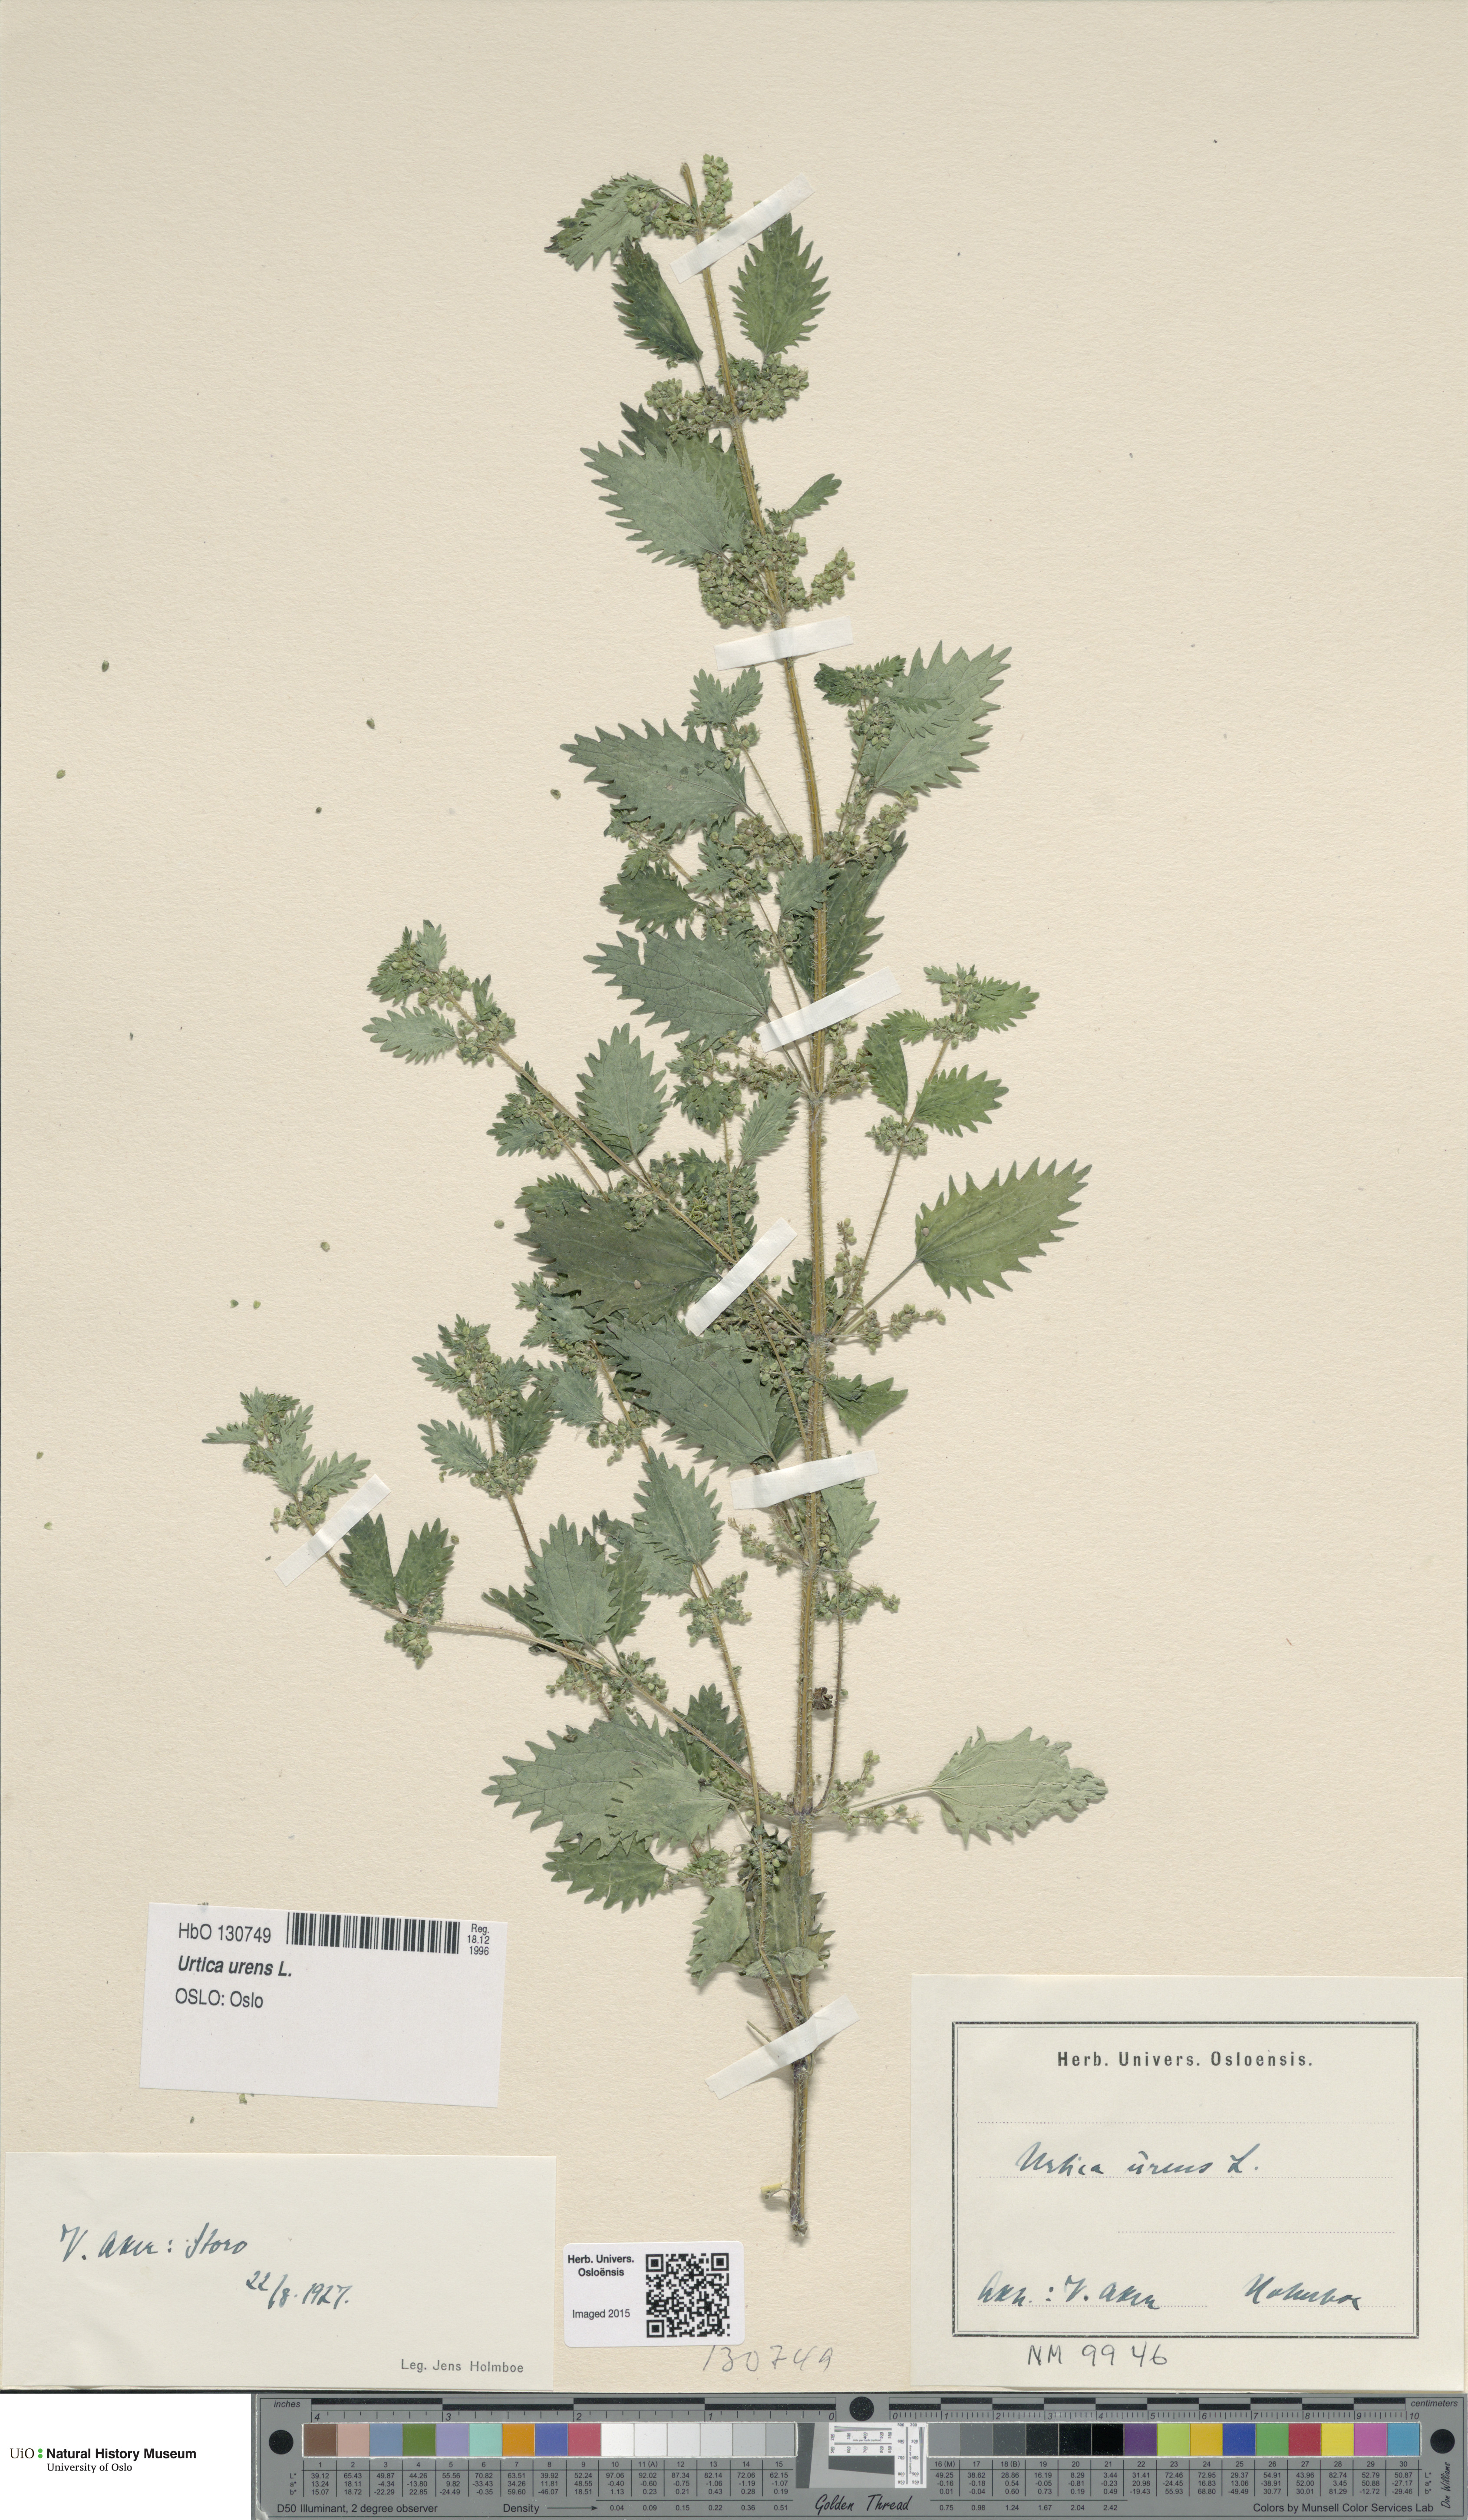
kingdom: Plantae
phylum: Tracheophyta
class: Magnoliopsida
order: Rosales
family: Urticaceae
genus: Urtica
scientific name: Urtica urens
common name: Dwarf nettle
